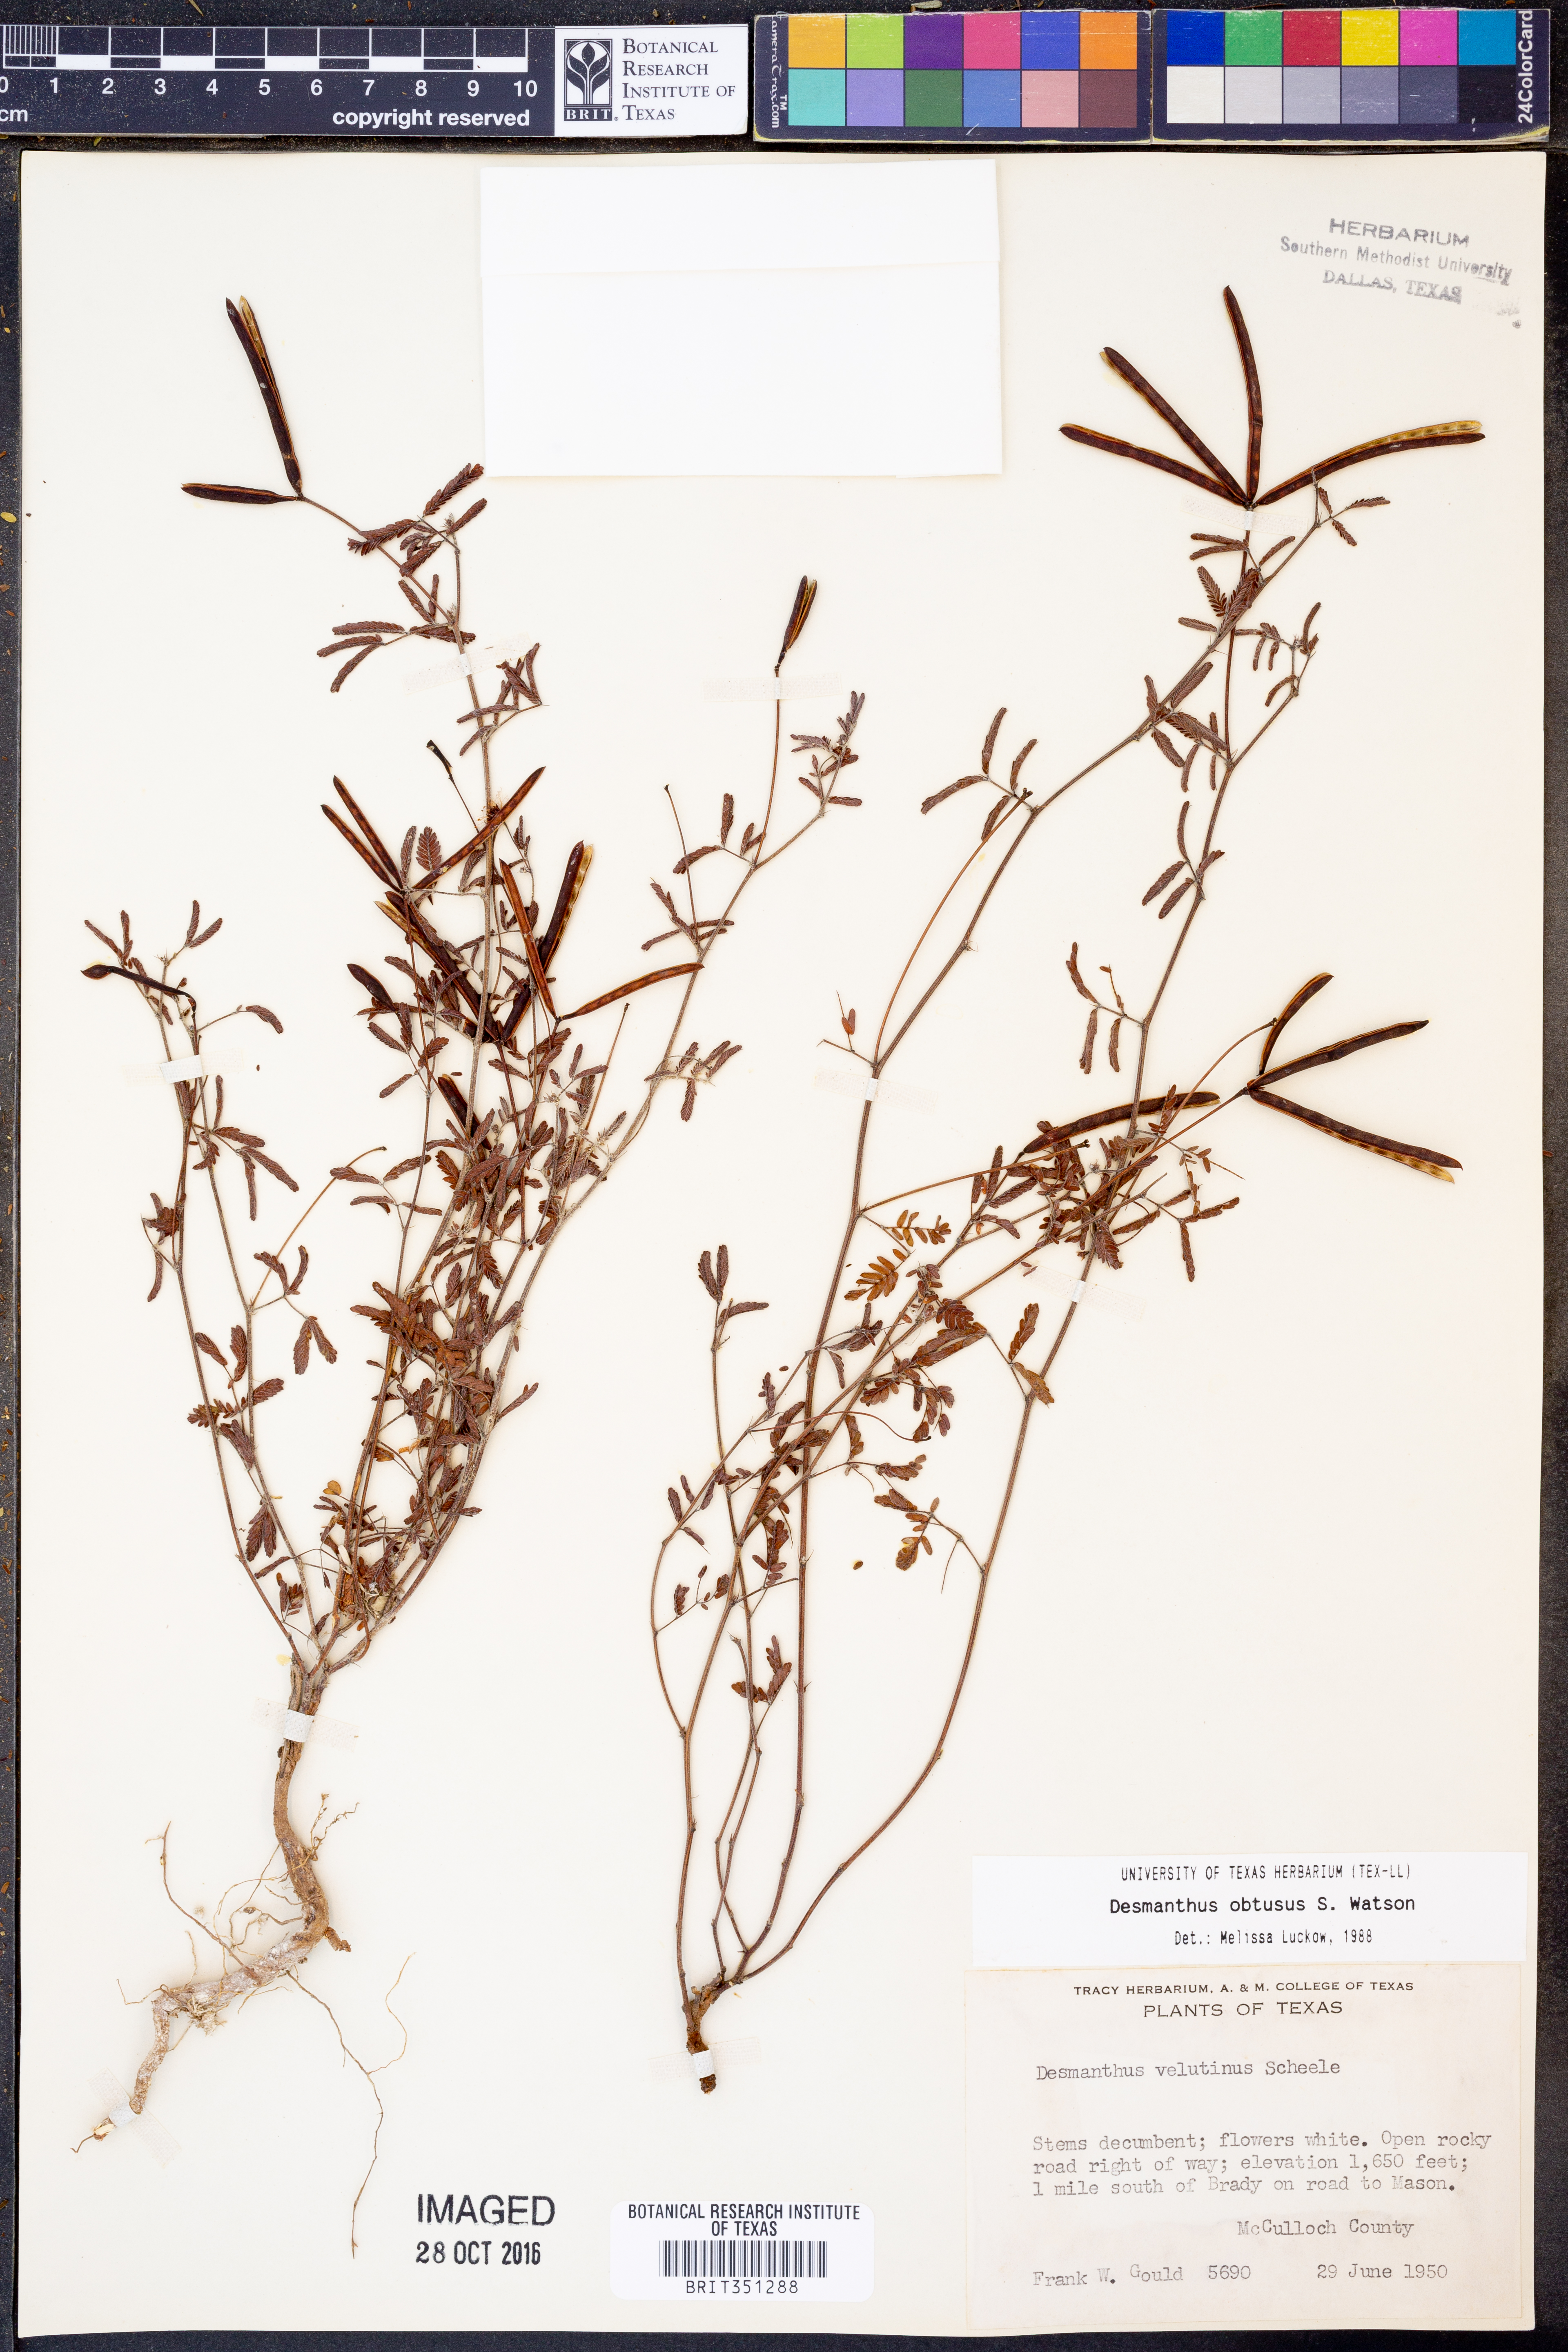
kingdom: Plantae
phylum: Tracheophyta
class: Magnoliopsida
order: Fabales
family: Fabaceae
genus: Desmanthus
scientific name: Desmanthus obtusus
